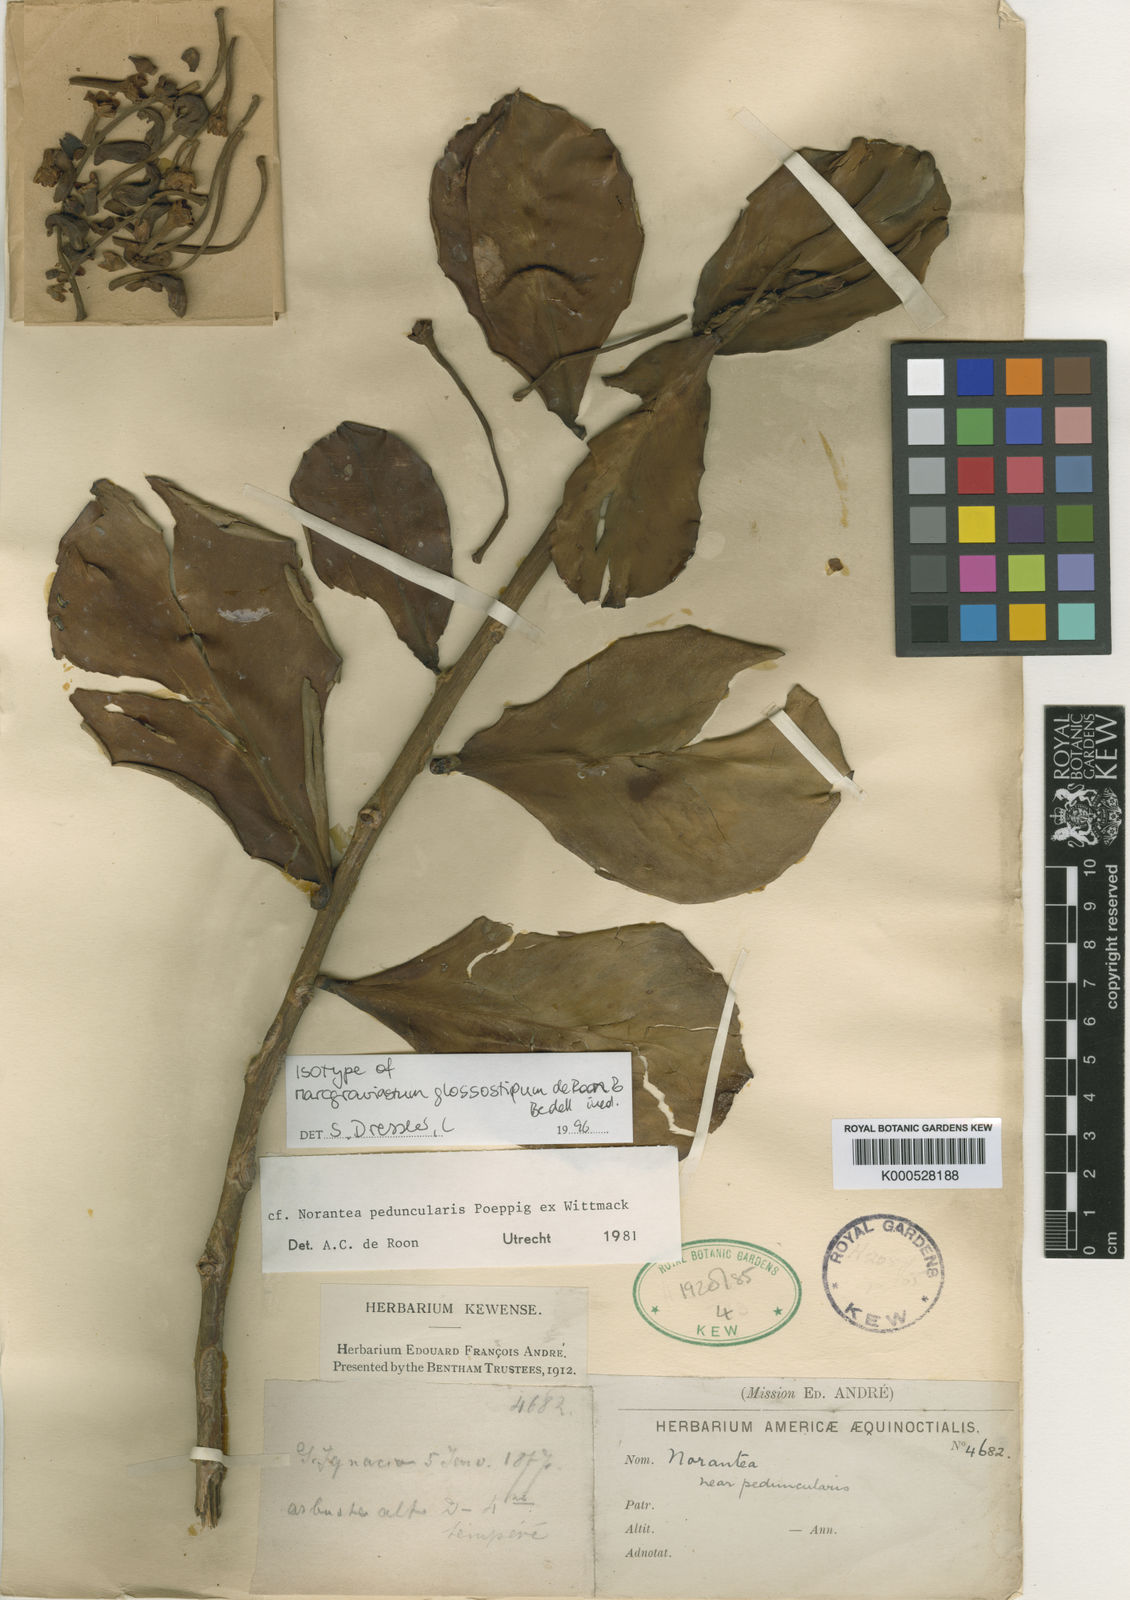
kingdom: Plantae
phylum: Tracheophyta
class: Magnoliopsida
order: Ericales
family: Marcgraviaceae
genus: Marcgraviastrum
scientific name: Marcgraviastrum glossostipum
